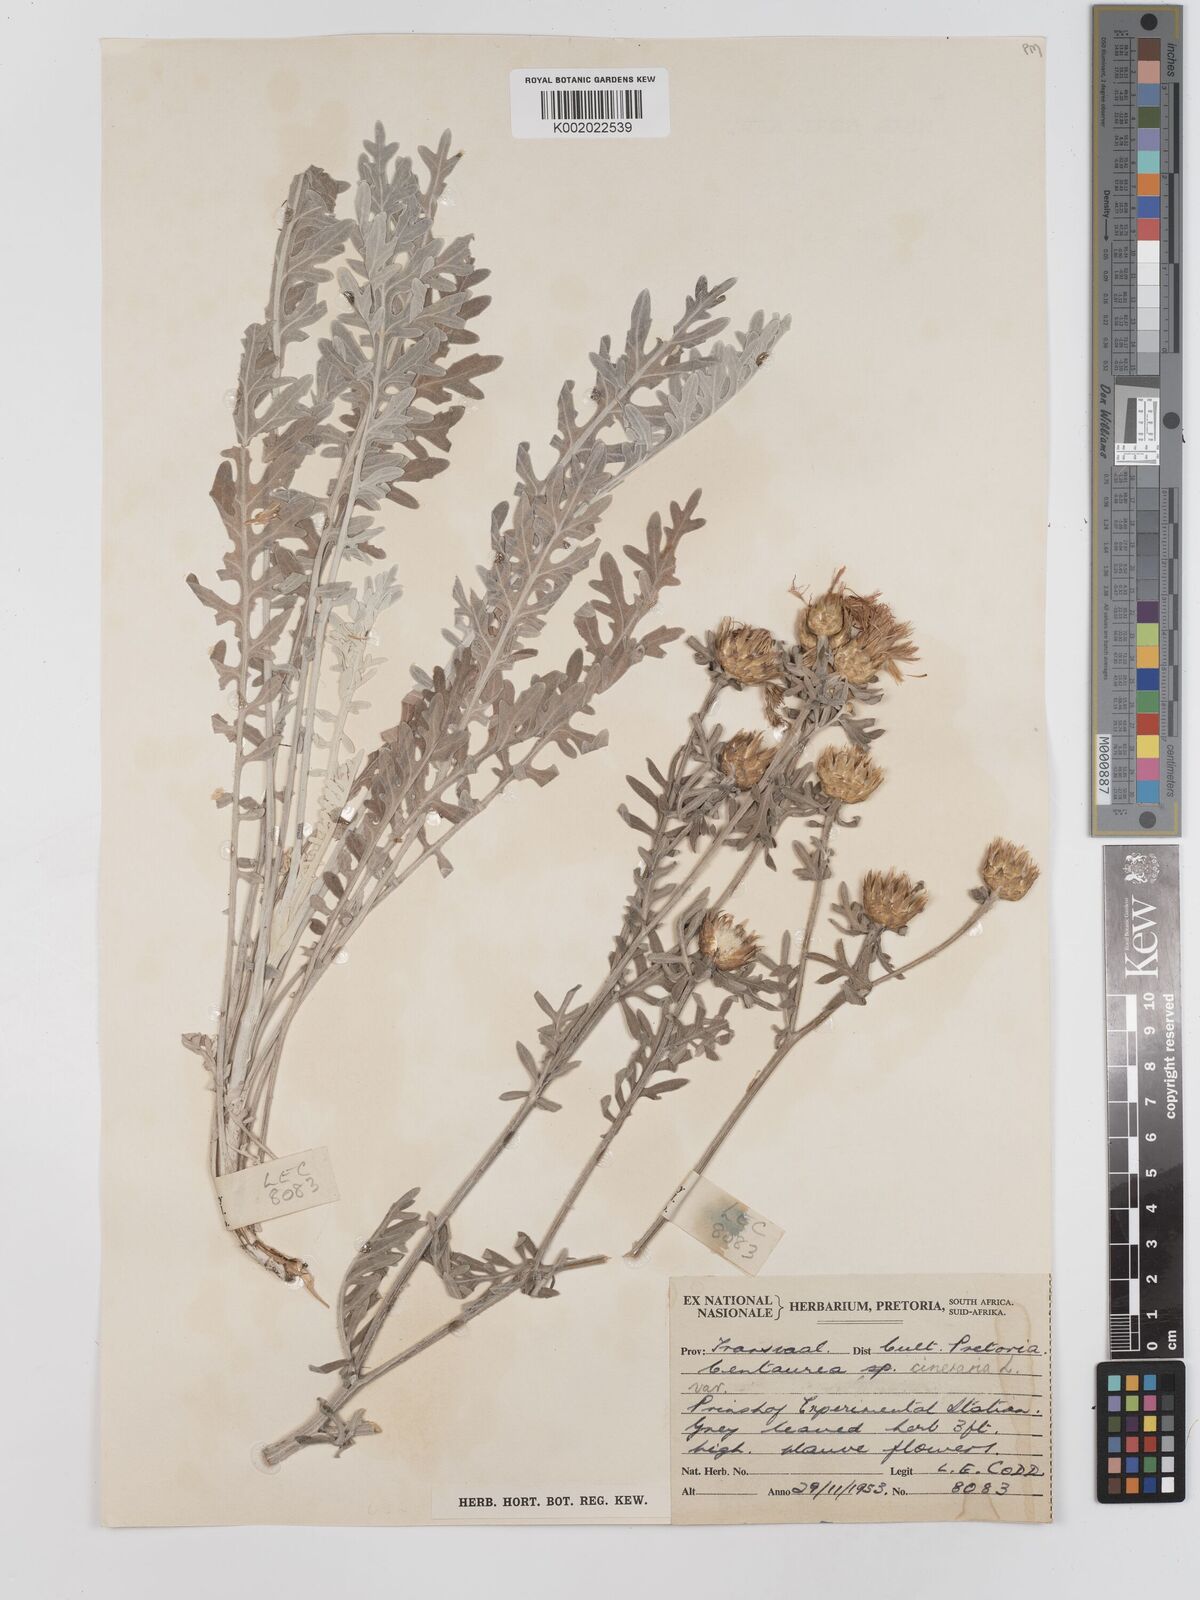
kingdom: Plantae
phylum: Tracheophyta
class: Magnoliopsida
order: Asterales
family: Asteraceae
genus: Centaurea
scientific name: Centaurea
